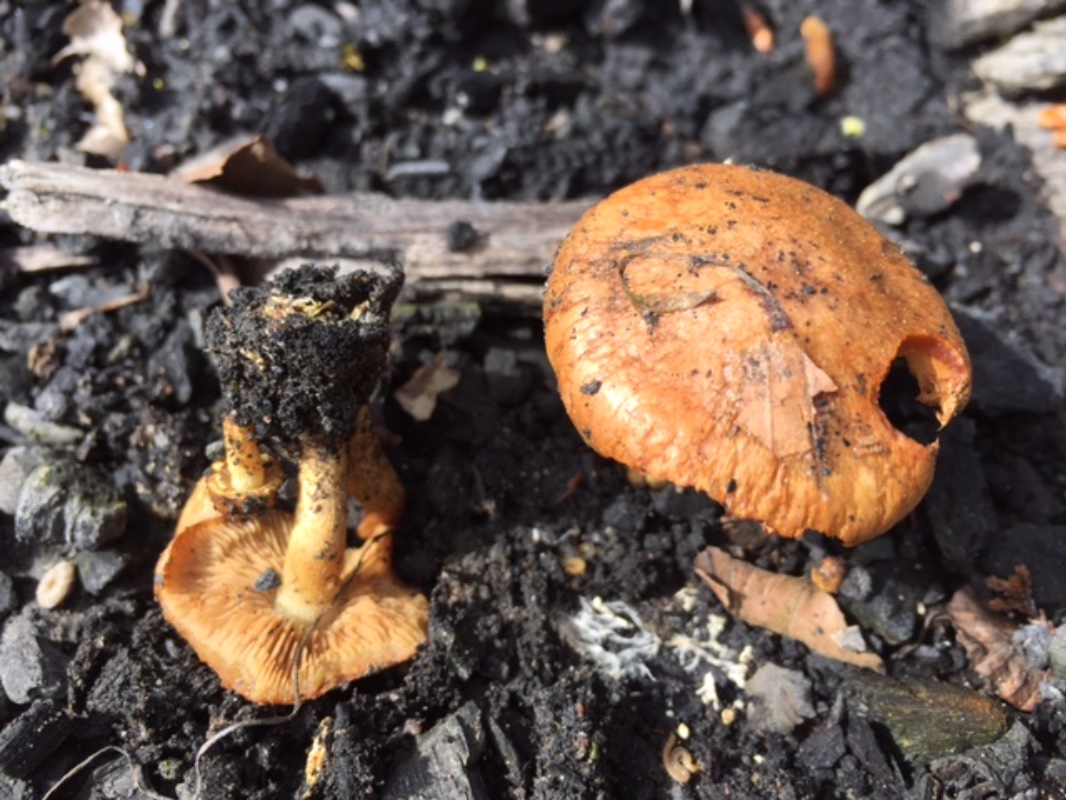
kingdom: Fungi
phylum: Basidiomycota
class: Agaricomycetes
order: Agaricales
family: Strophariaceae
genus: Pholiota
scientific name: Pholiota carbonaria
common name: kul-skælhat
